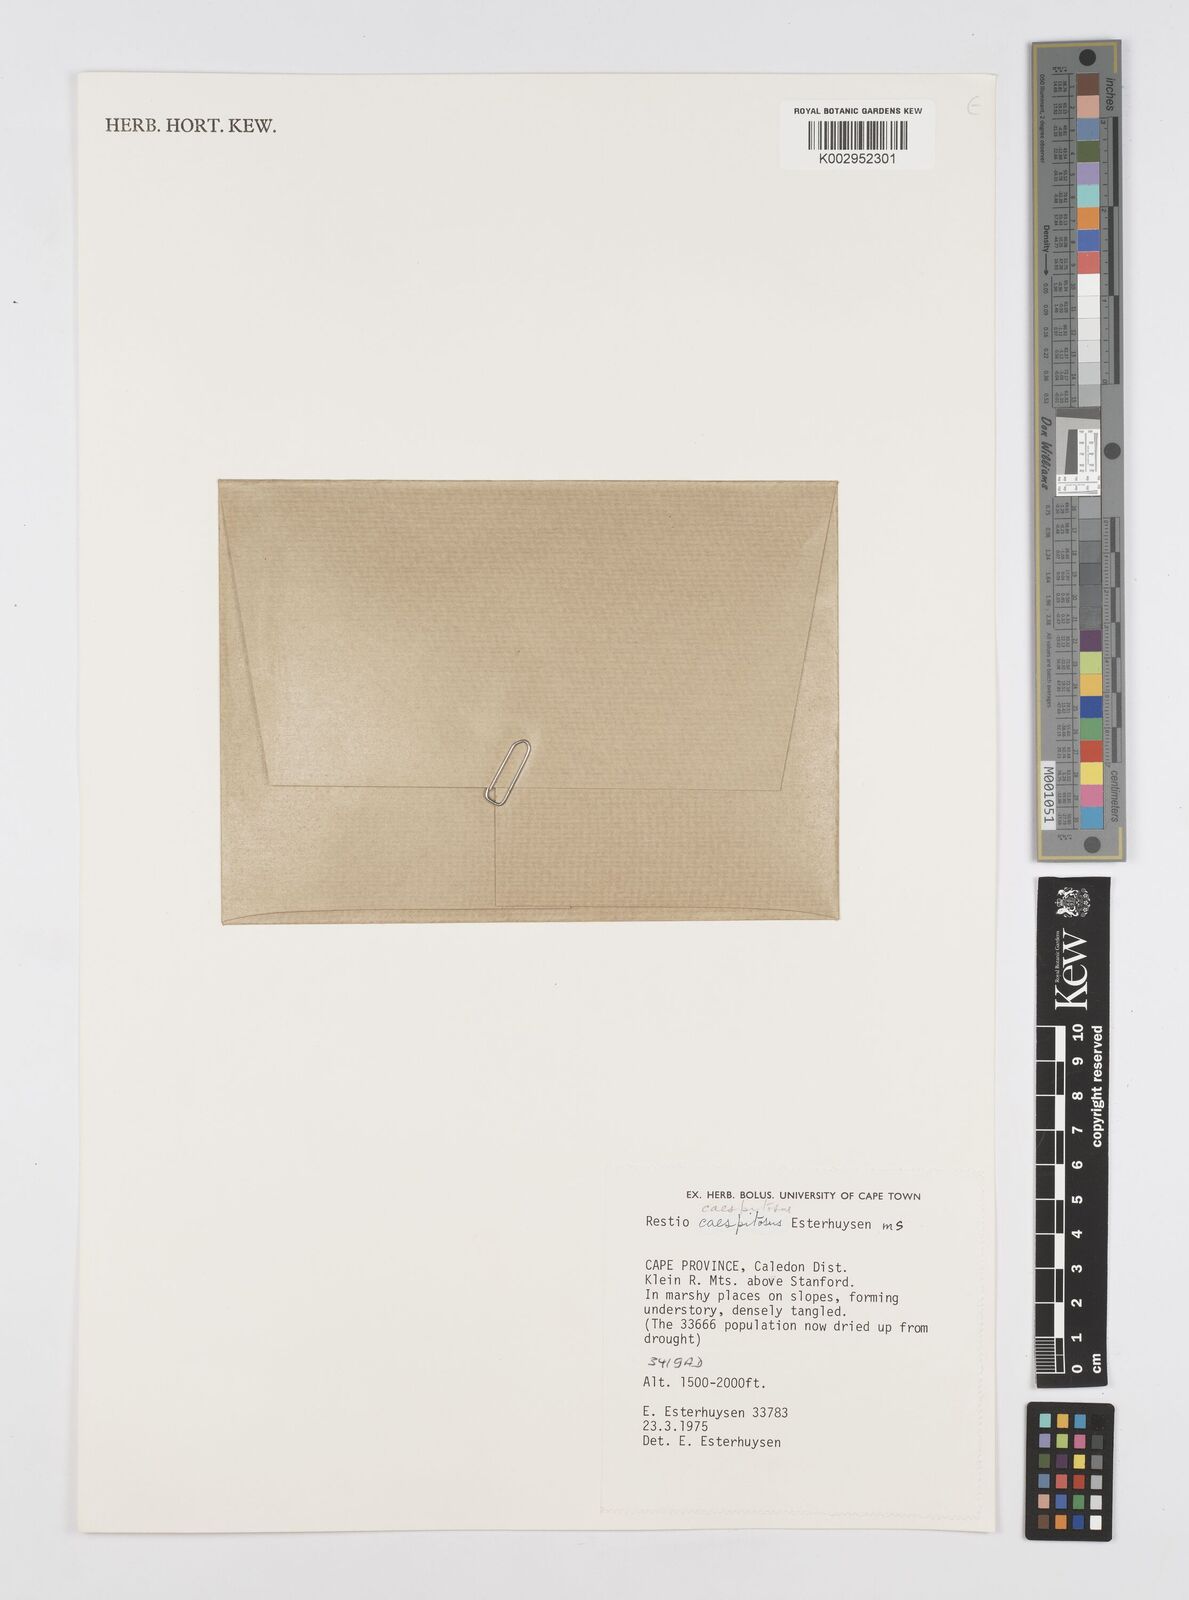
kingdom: Plantae
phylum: Tracheophyta
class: Liliopsida
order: Poales
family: Restionaceae
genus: Restio
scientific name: Restio caespitosus
